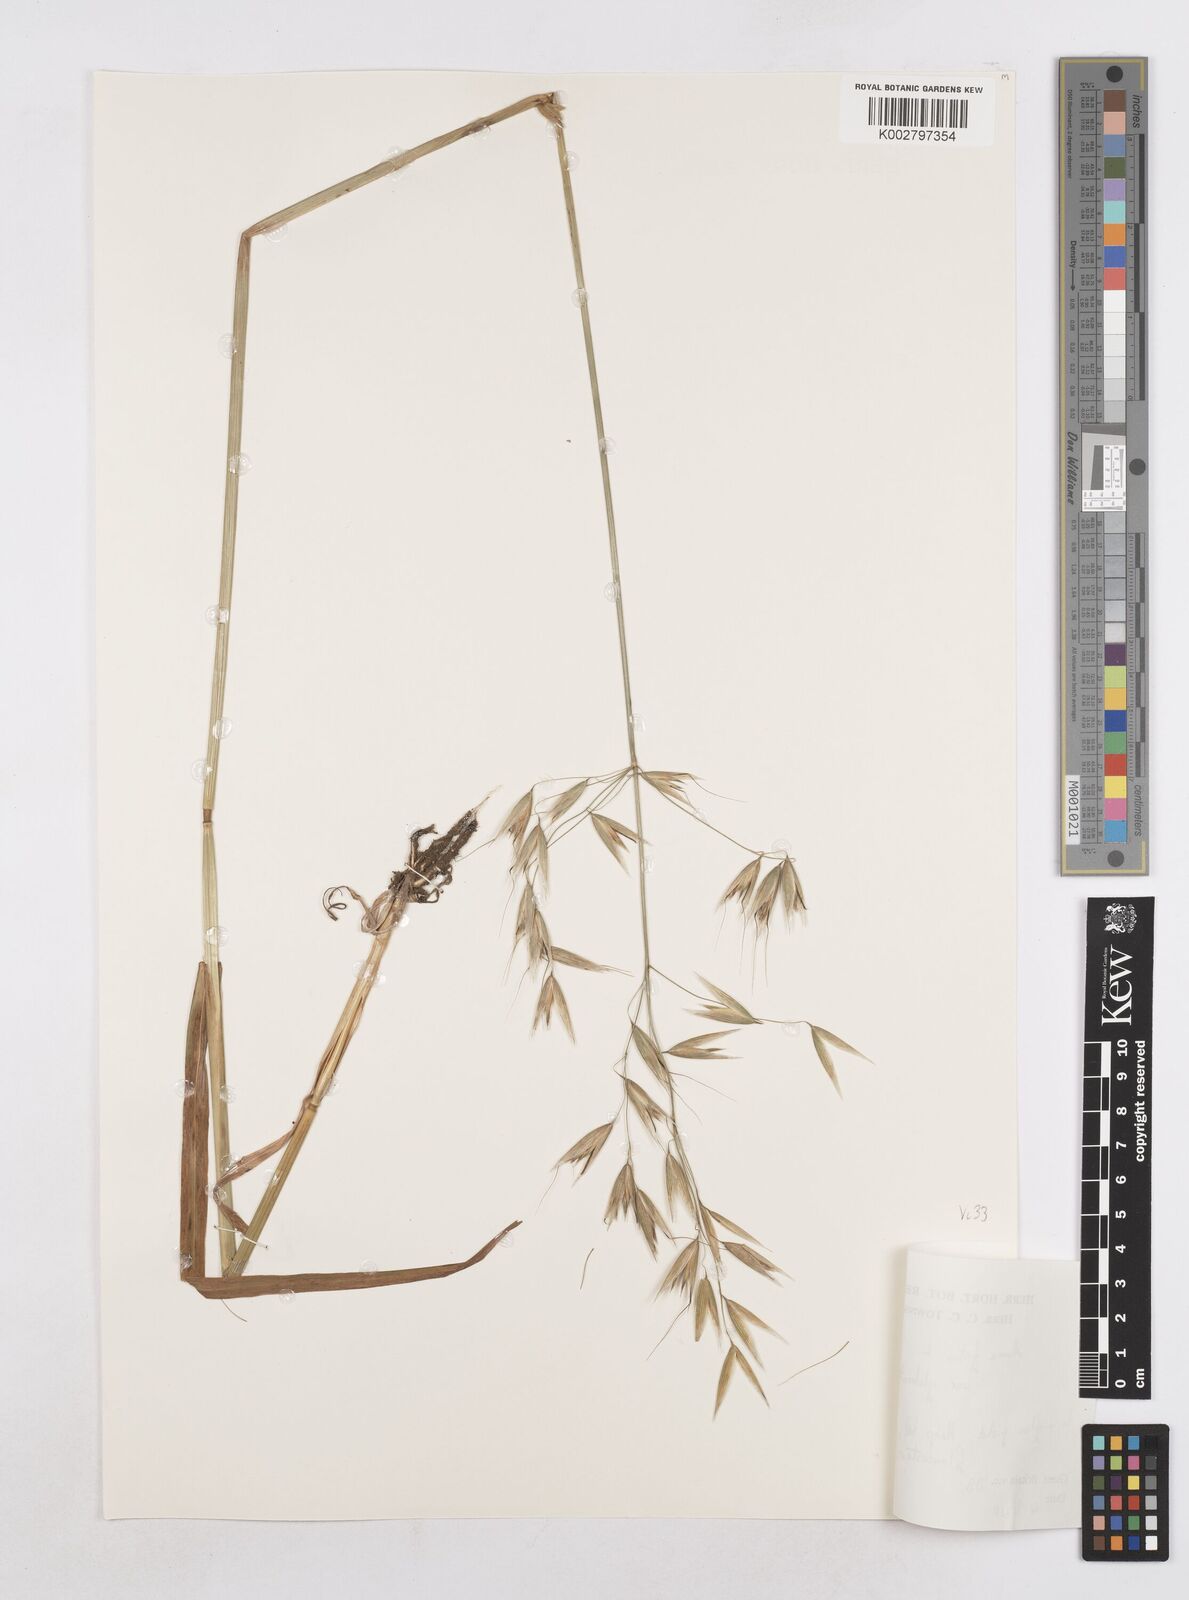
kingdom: Plantae
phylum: Tracheophyta
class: Liliopsida
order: Poales
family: Poaceae
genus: Avena
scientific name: Avena fatua
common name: Wild oat
